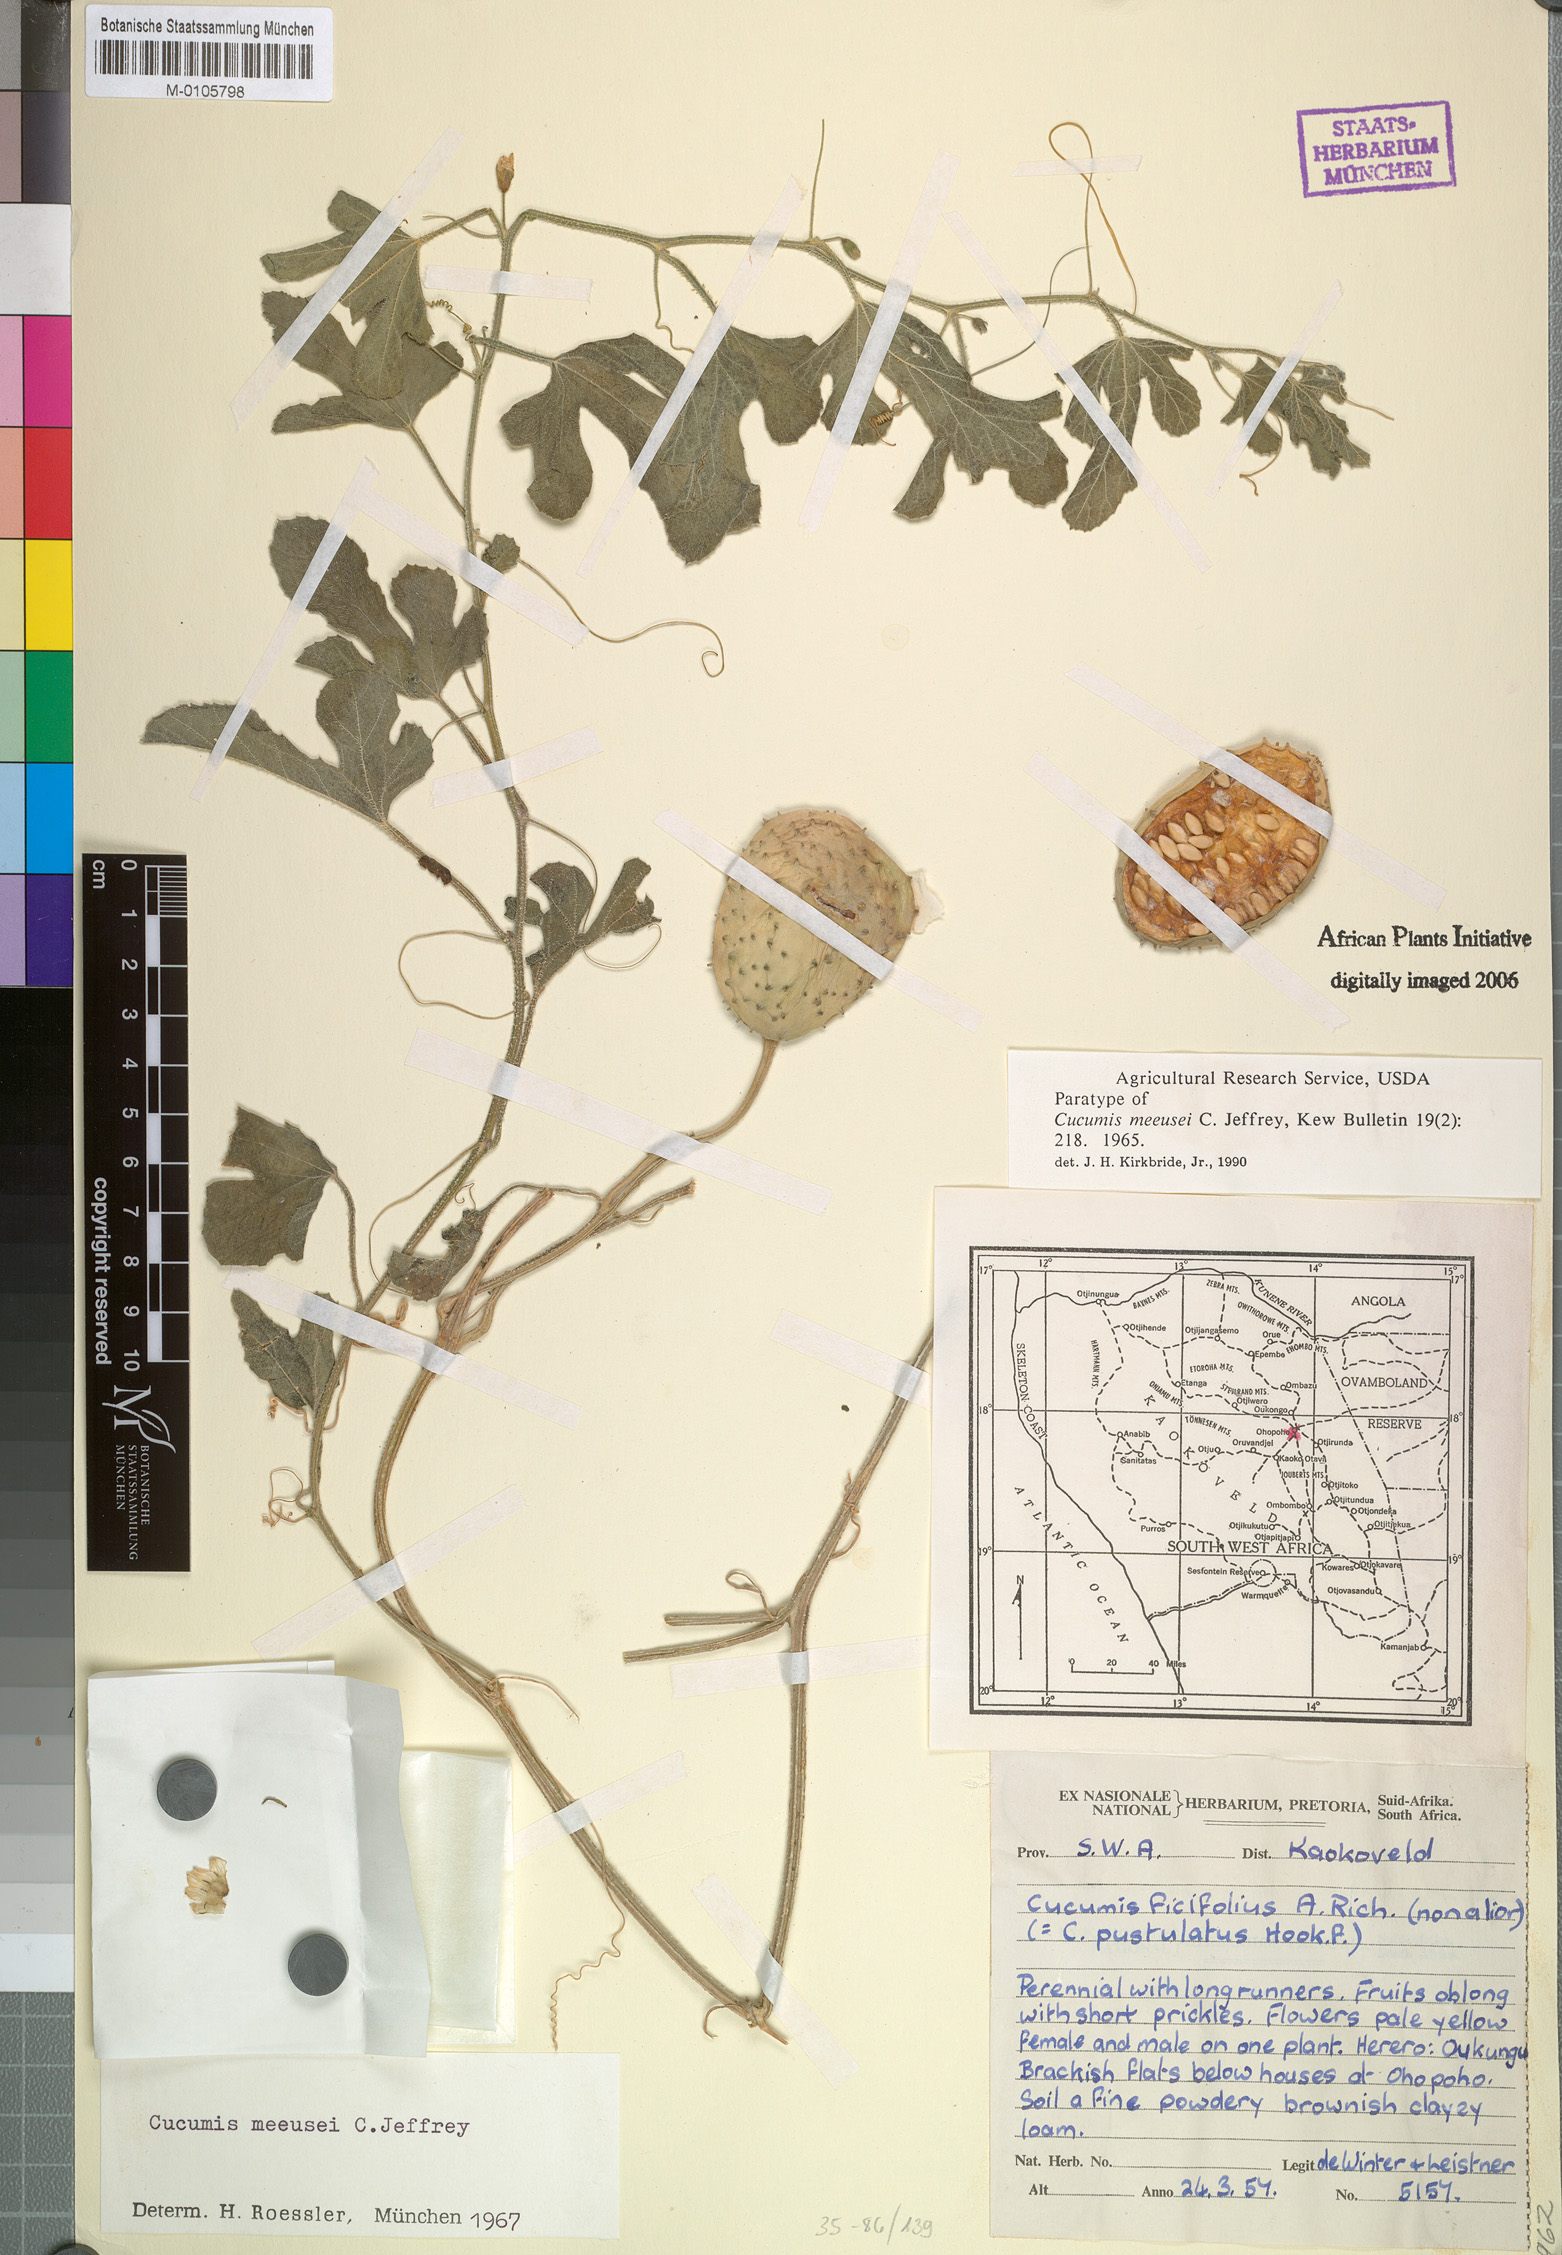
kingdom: Plantae
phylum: Tracheophyta
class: Magnoliopsida
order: Cucurbitales
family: Cucurbitaceae
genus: Cucumis
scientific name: Cucumis meeusei
